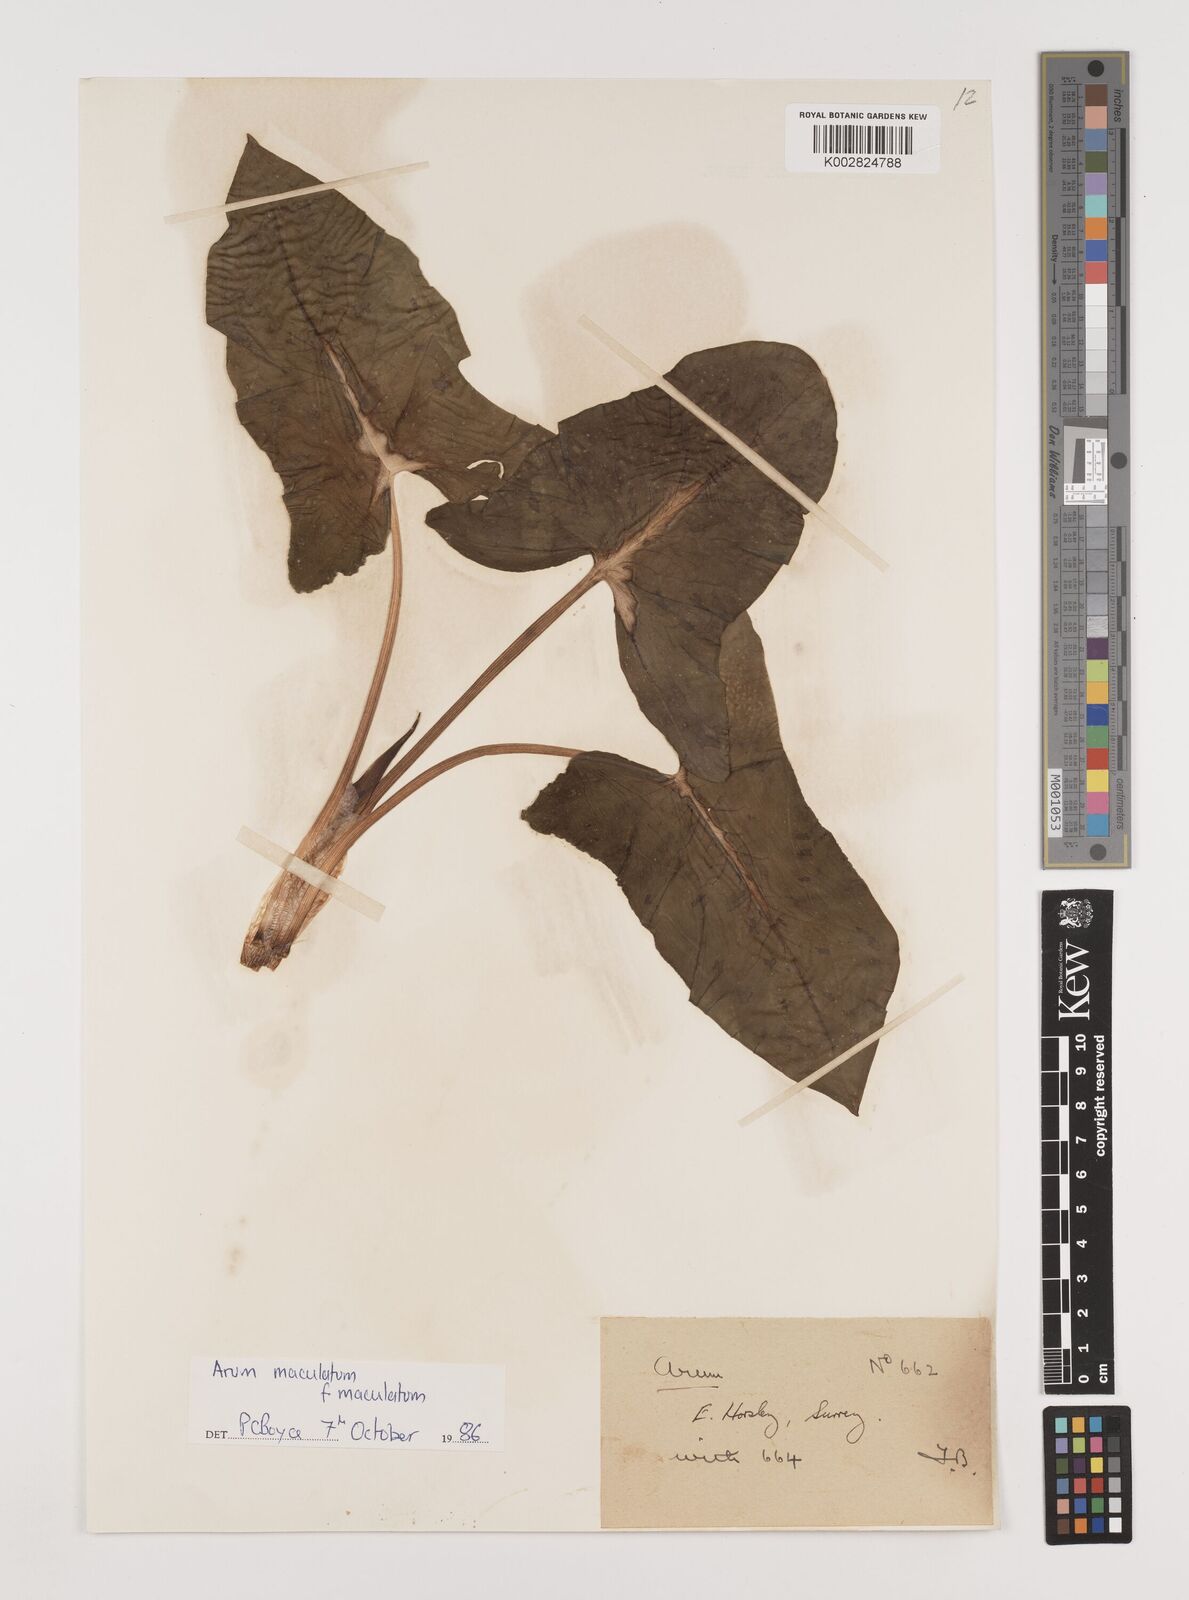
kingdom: Plantae
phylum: Tracheophyta
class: Liliopsida
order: Alismatales
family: Araceae
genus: Arum
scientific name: Arum maculatum
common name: Lords-and-ladies
